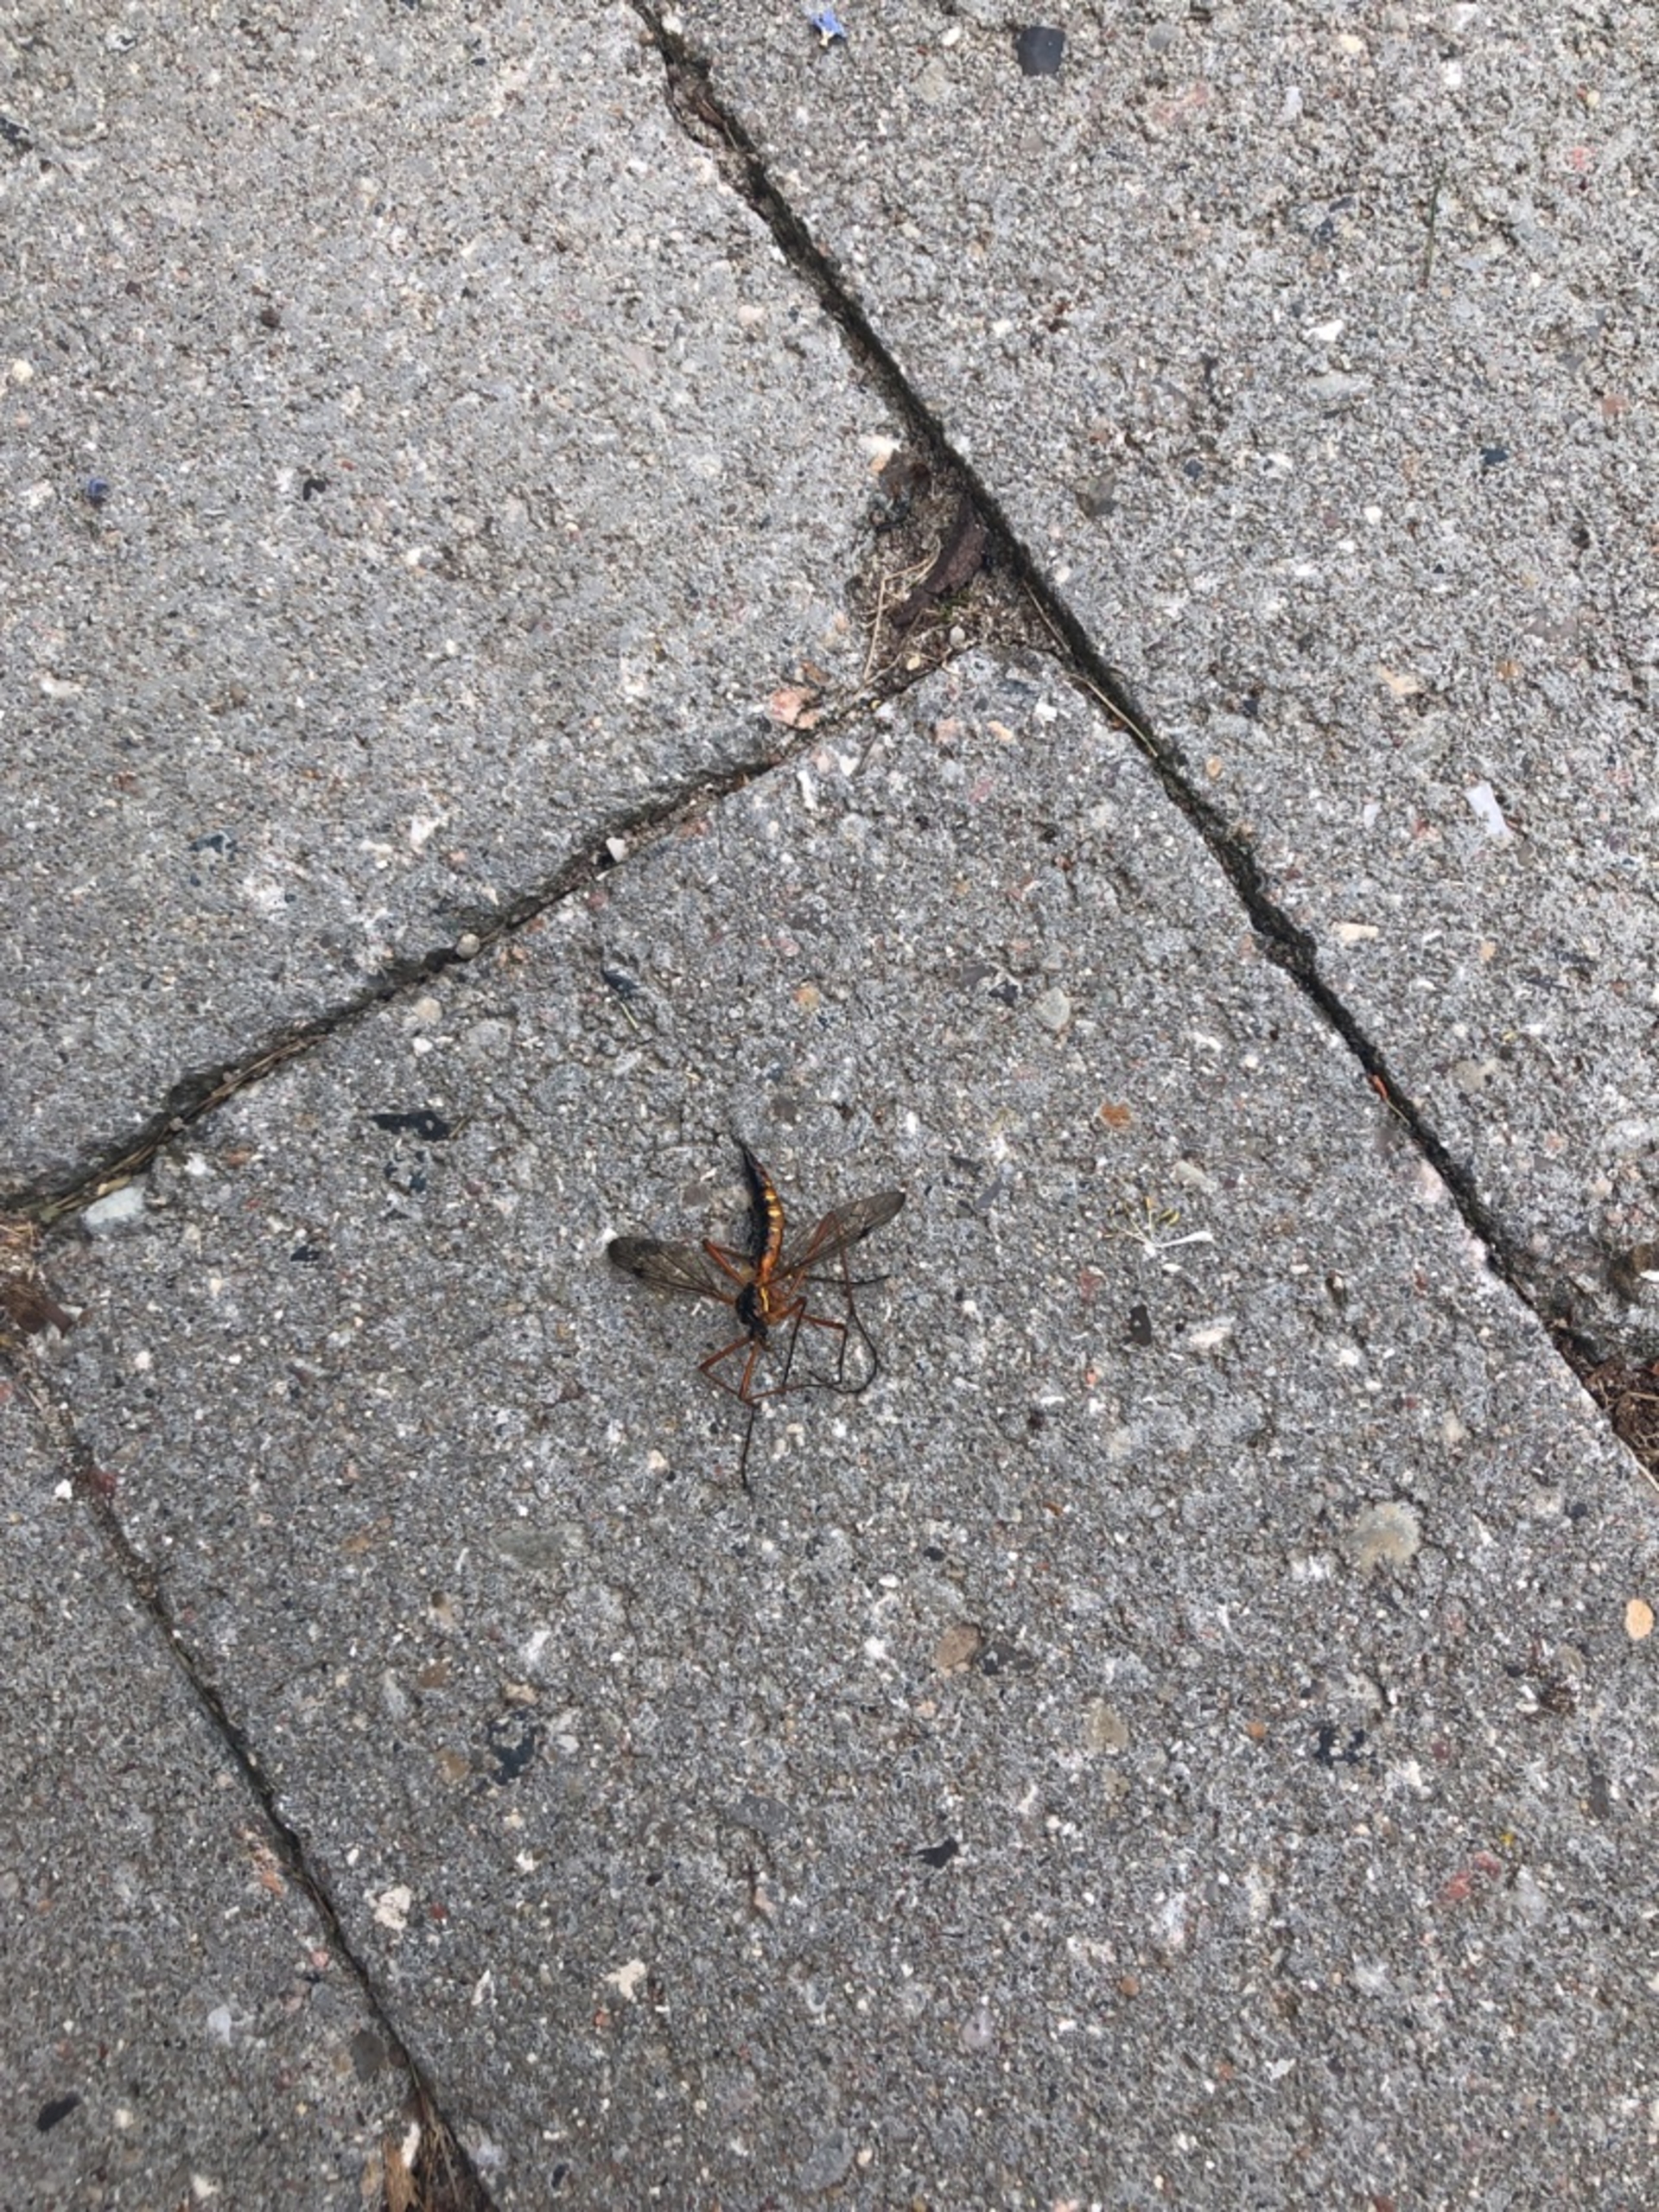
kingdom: Animalia
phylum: Arthropoda
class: Insecta
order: Diptera
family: Tipulidae
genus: Ctenophora
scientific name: Ctenophora pectinicornis
